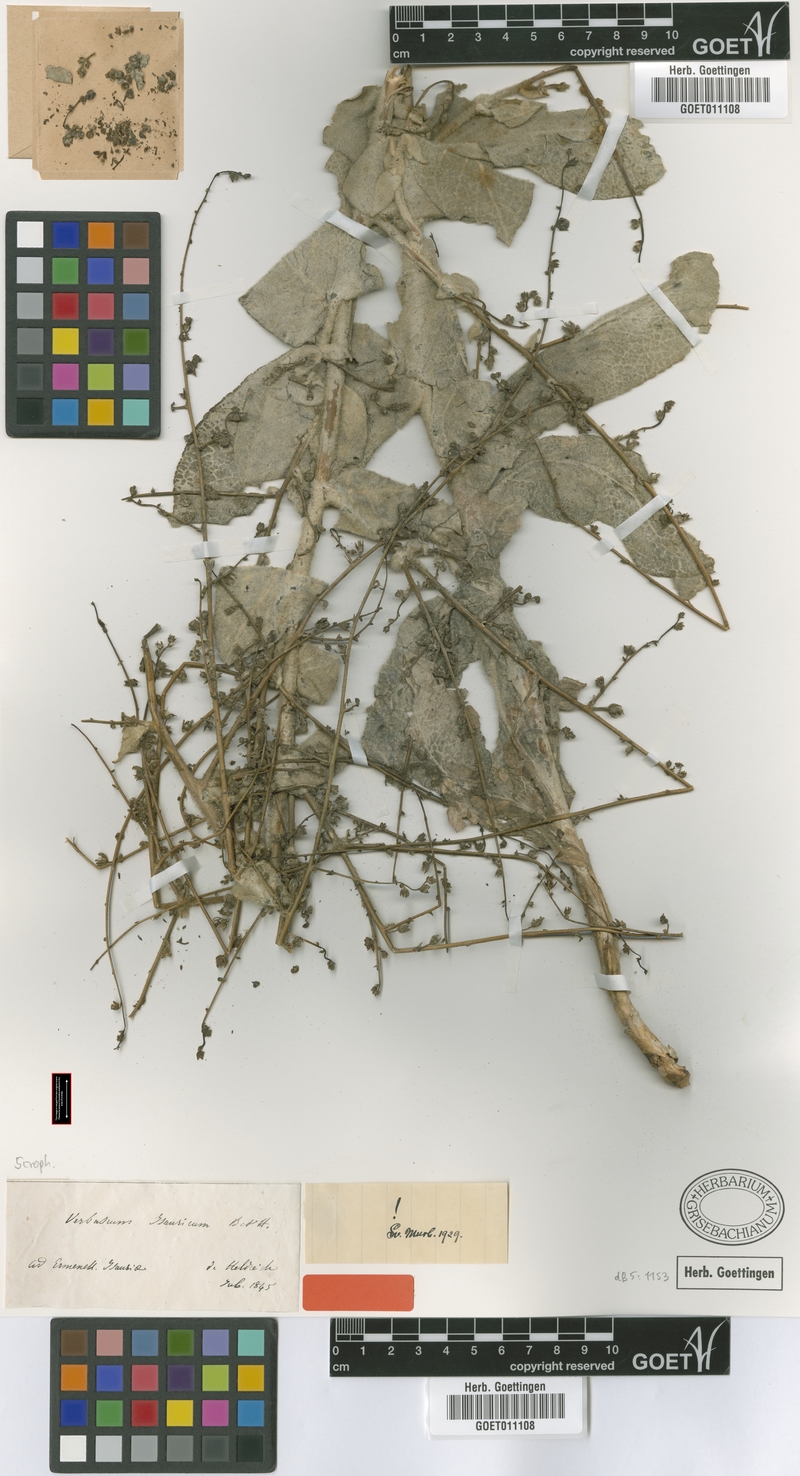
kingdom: Plantae
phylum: Tracheophyta
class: Magnoliopsida
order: Lamiales
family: Scrophulariaceae
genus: Verbascum
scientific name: Verbascum isauricum
